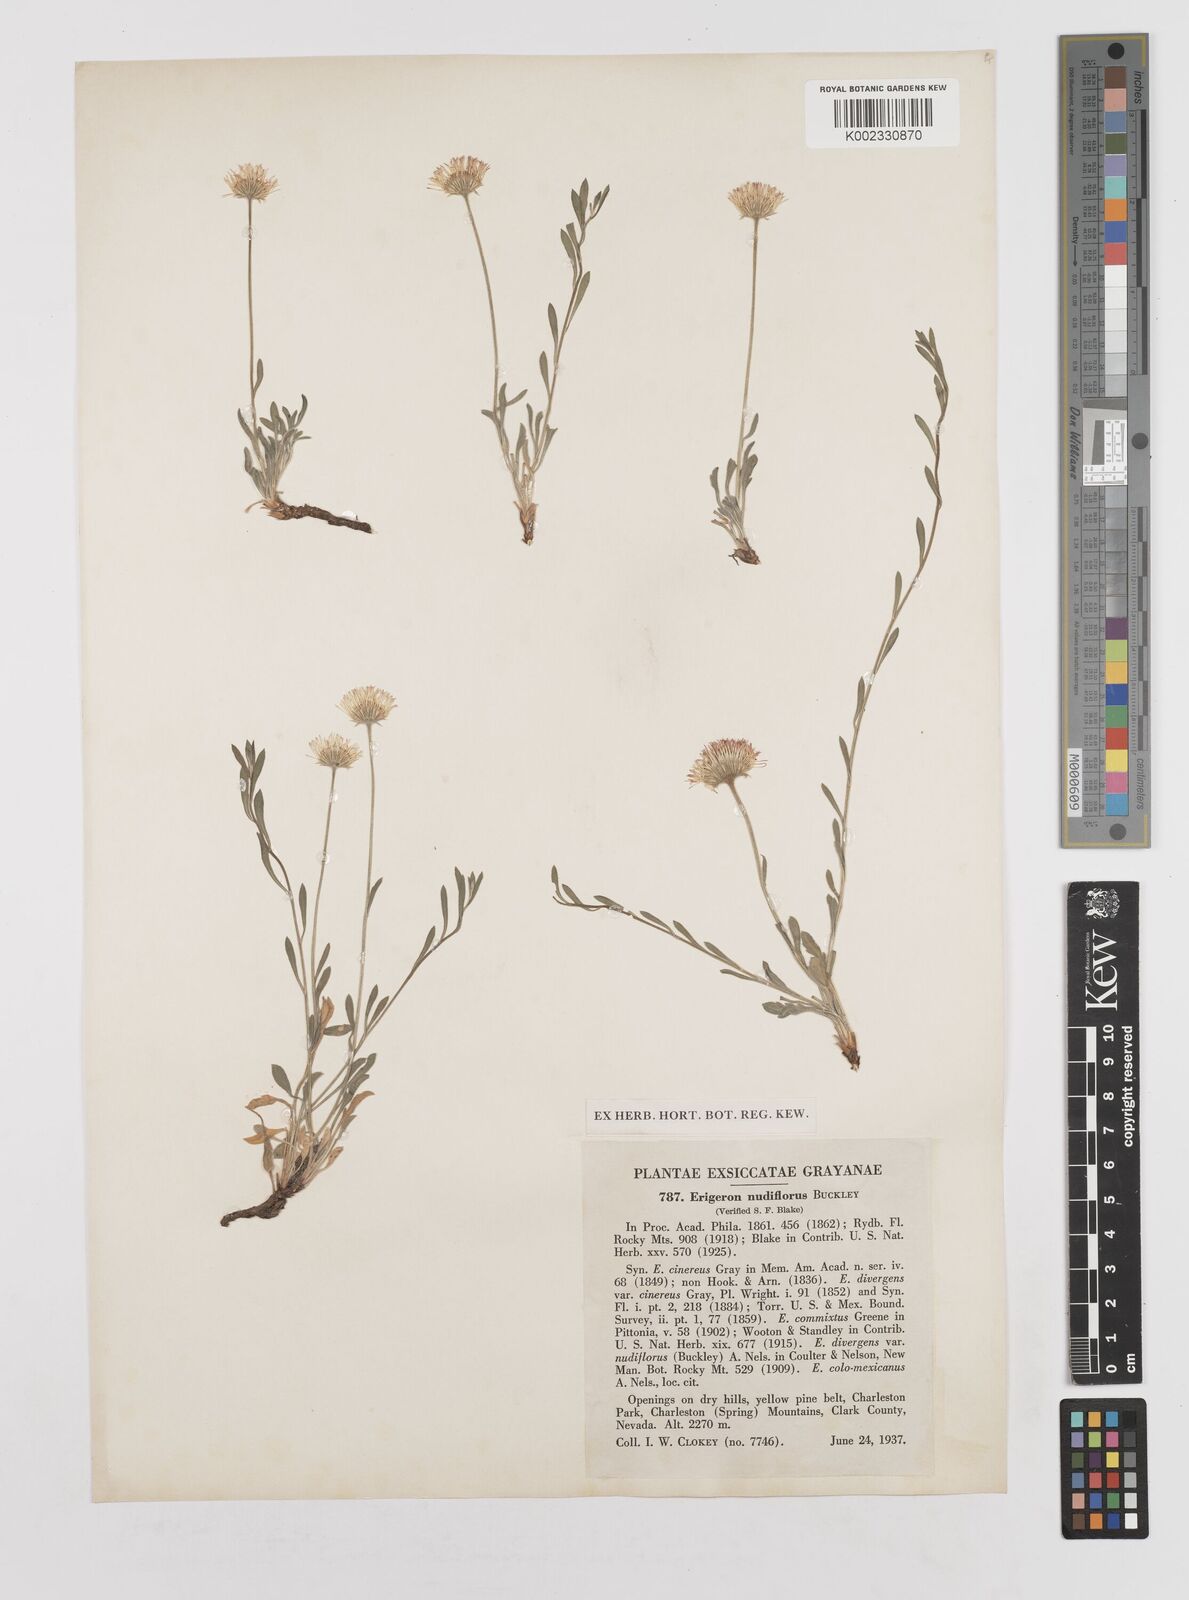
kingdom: Plantae
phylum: Tracheophyta
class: Magnoliopsida
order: Asterales
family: Asteraceae
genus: Erigeron
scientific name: Erigeron vernus
